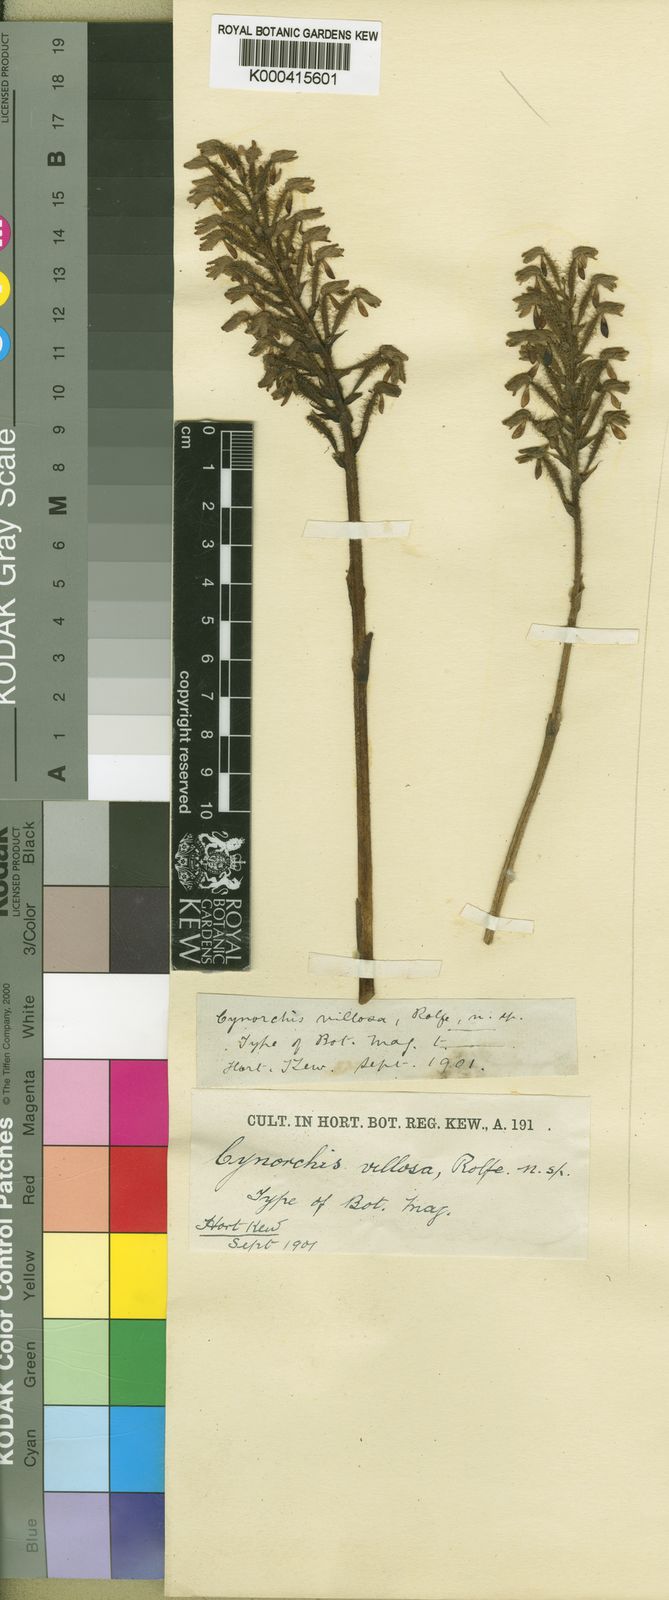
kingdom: Plantae
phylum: Tracheophyta
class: Liliopsida
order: Asparagales
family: Orchidaceae
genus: Cynorkis
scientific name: Cynorkis villosa
